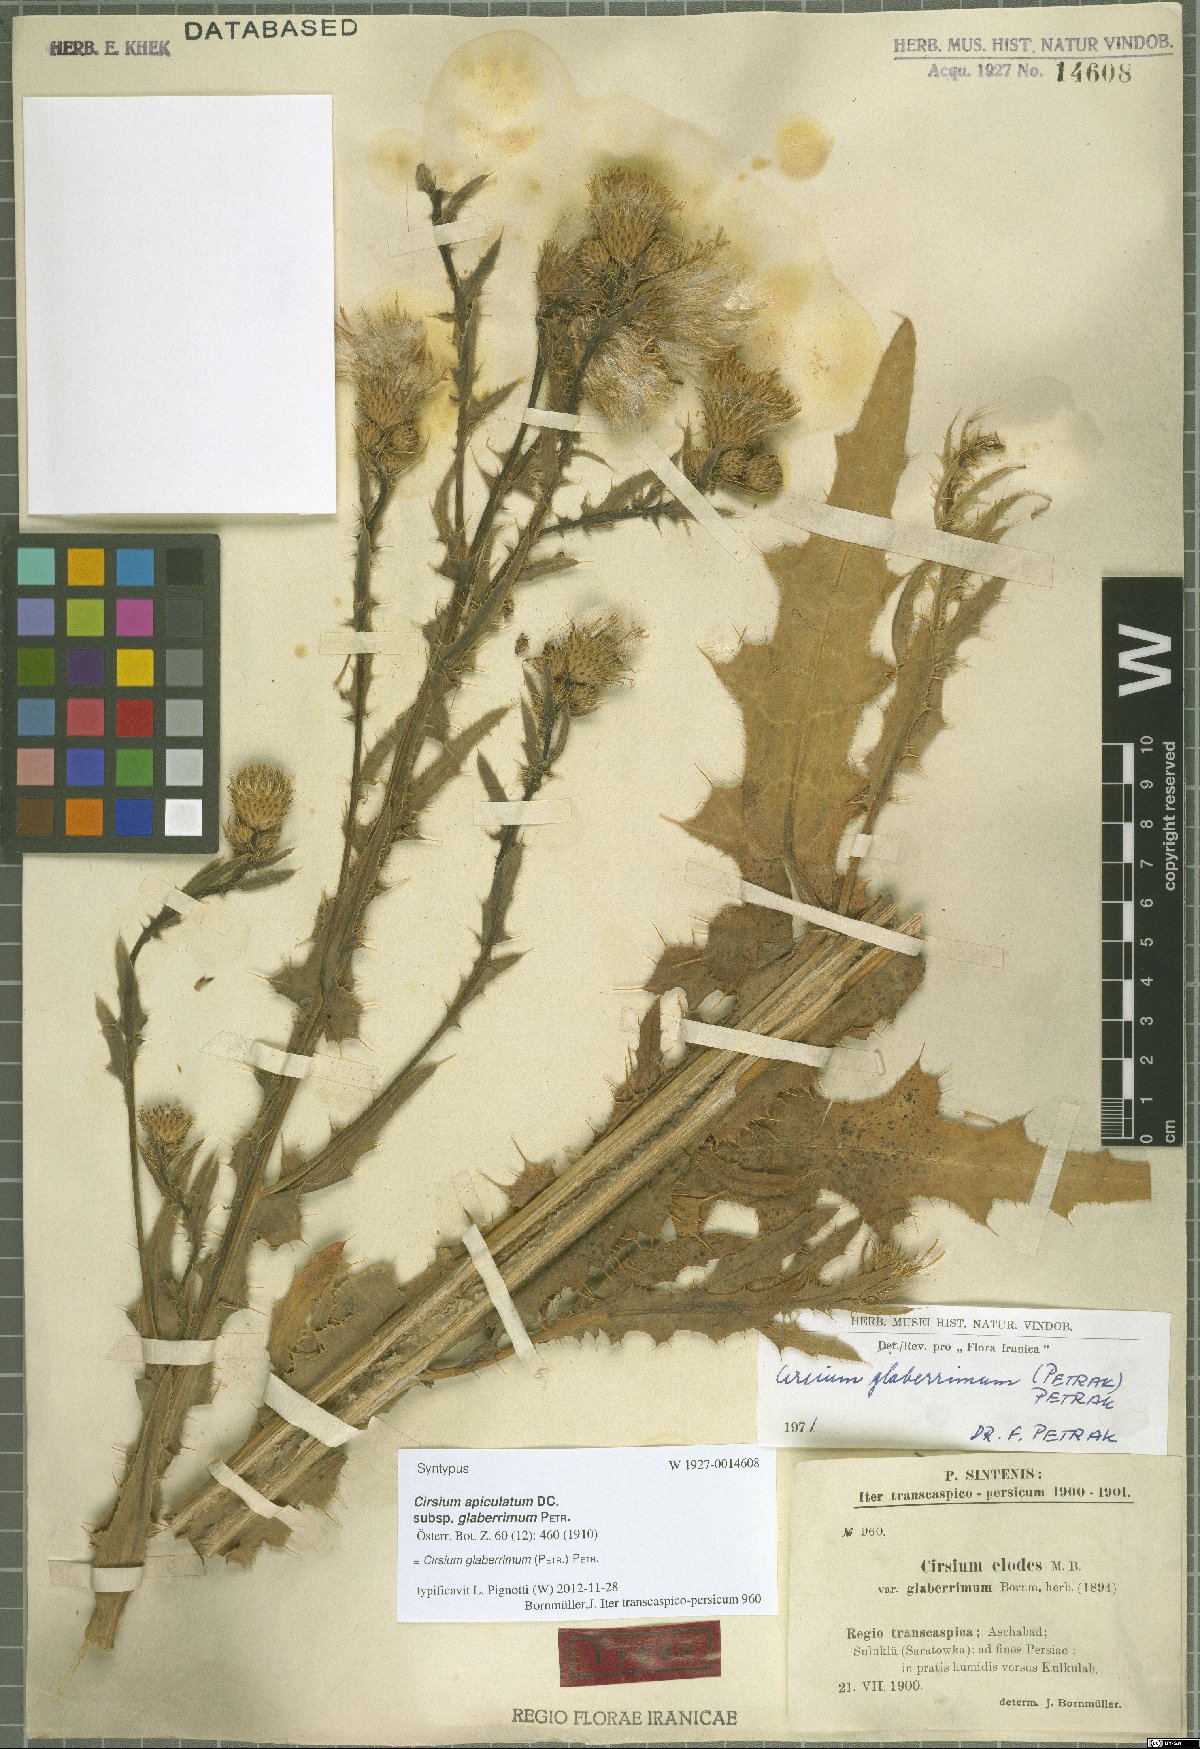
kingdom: Plantae
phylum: Tracheophyta
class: Magnoliopsida
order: Asterales
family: Asteraceae
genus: Cirsium
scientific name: Cirsium glaberrimum
